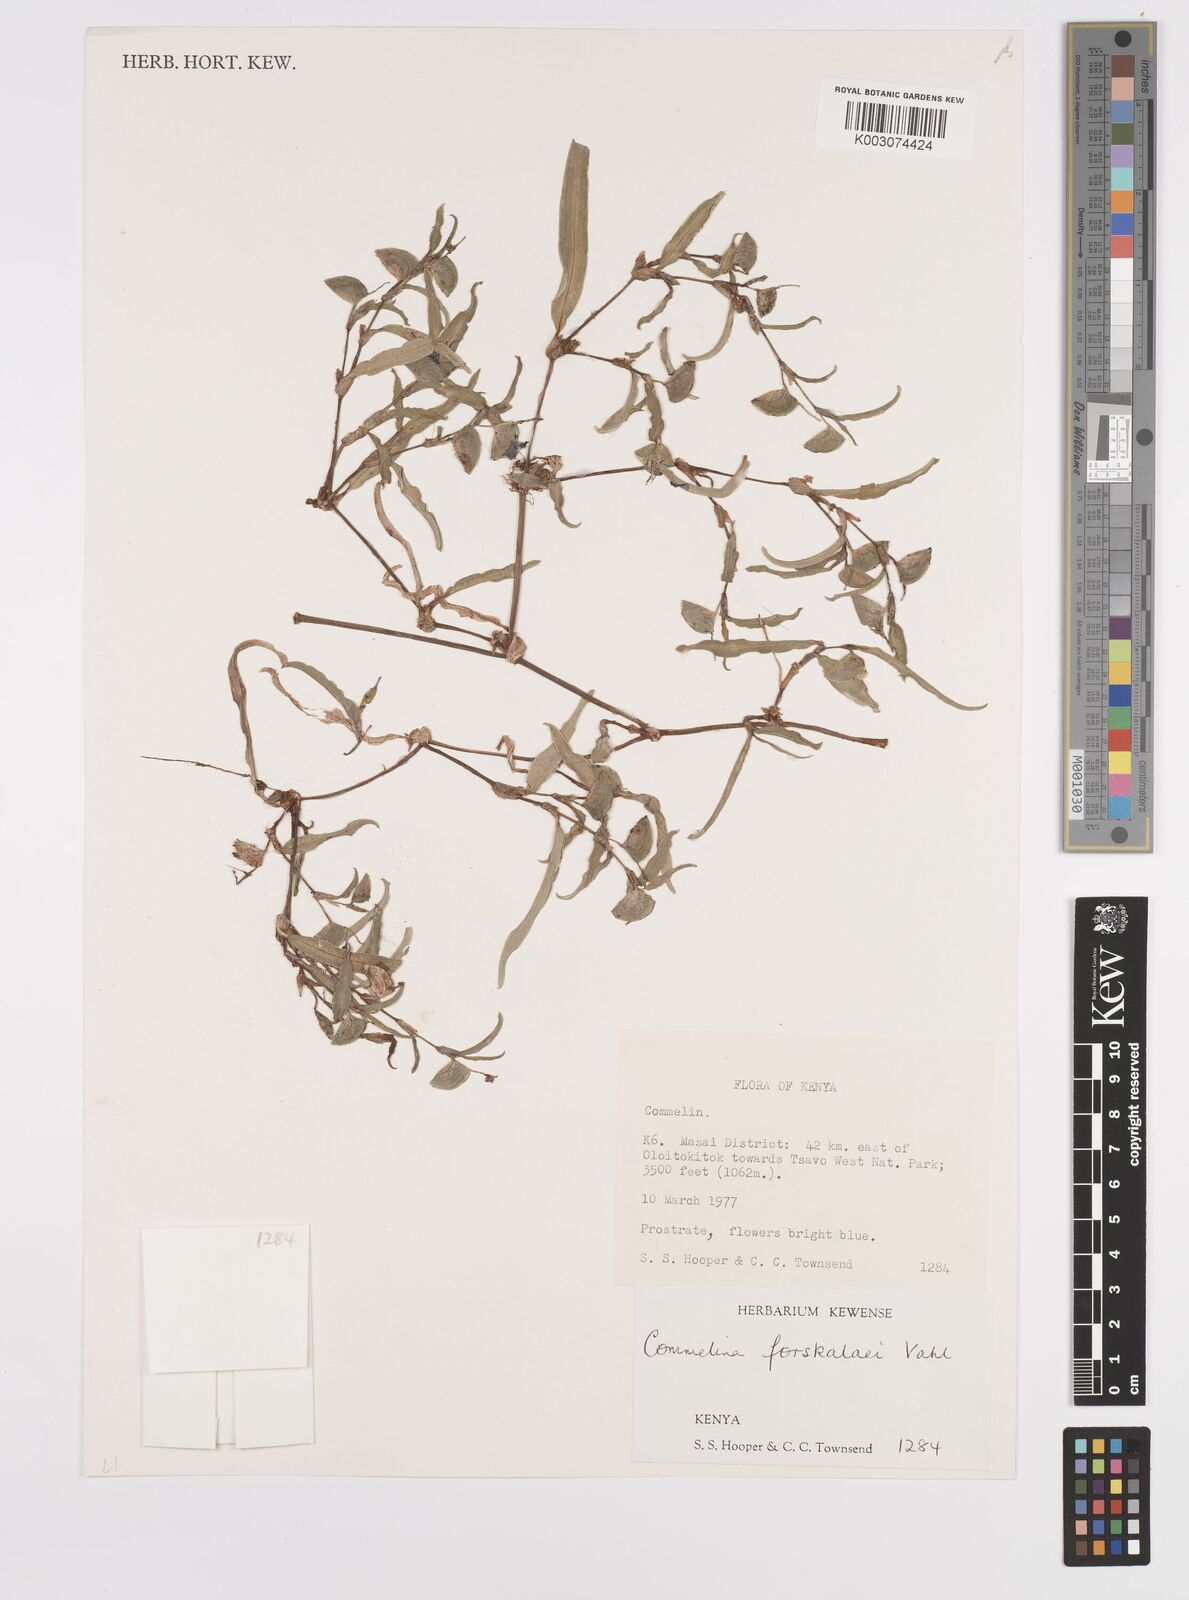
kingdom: Plantae
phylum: Tracheophyta
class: Liliopsida
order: Commelinales
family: Commelinaceae
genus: Commelina
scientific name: Commelina forskaolii
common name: Rat's ear
